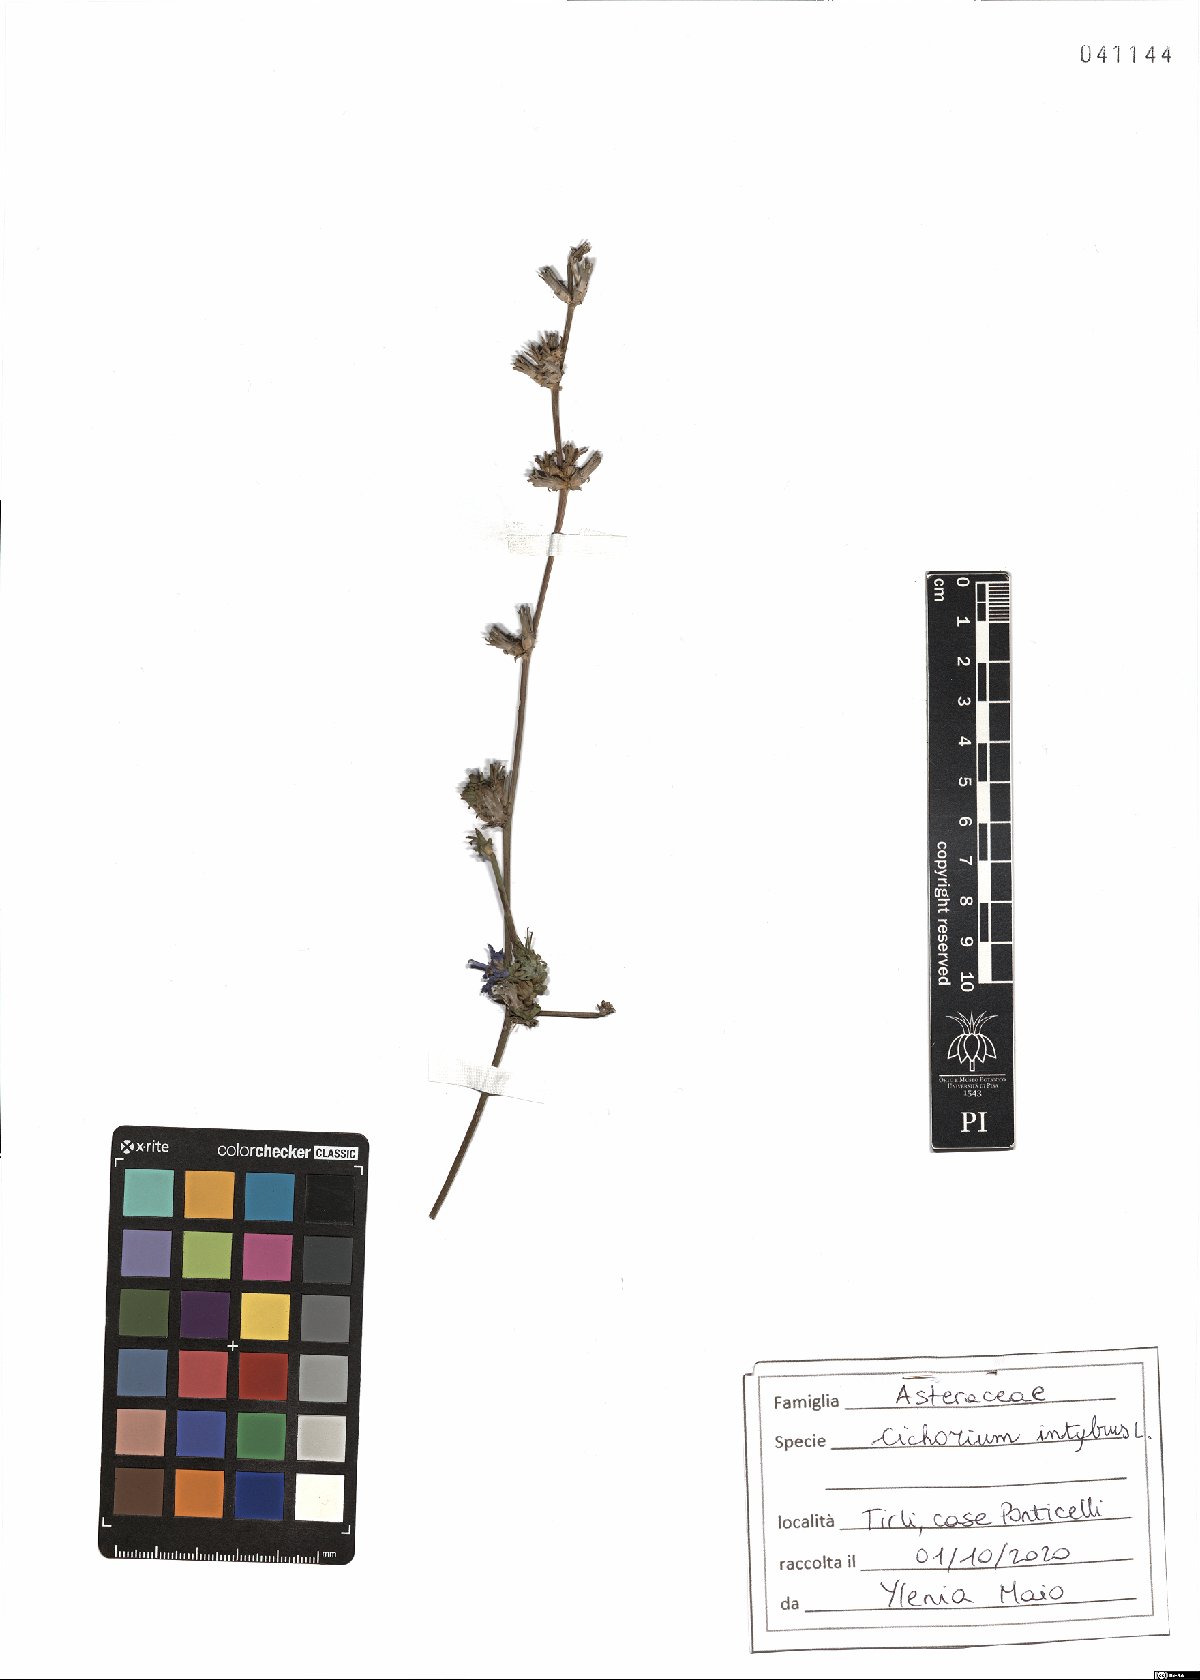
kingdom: Plantae
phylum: Tracheophyta
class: Magnoliopsida
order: Asterales
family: Asteraceae
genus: Cichorium
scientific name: Cichorium intybus
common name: Chicory
